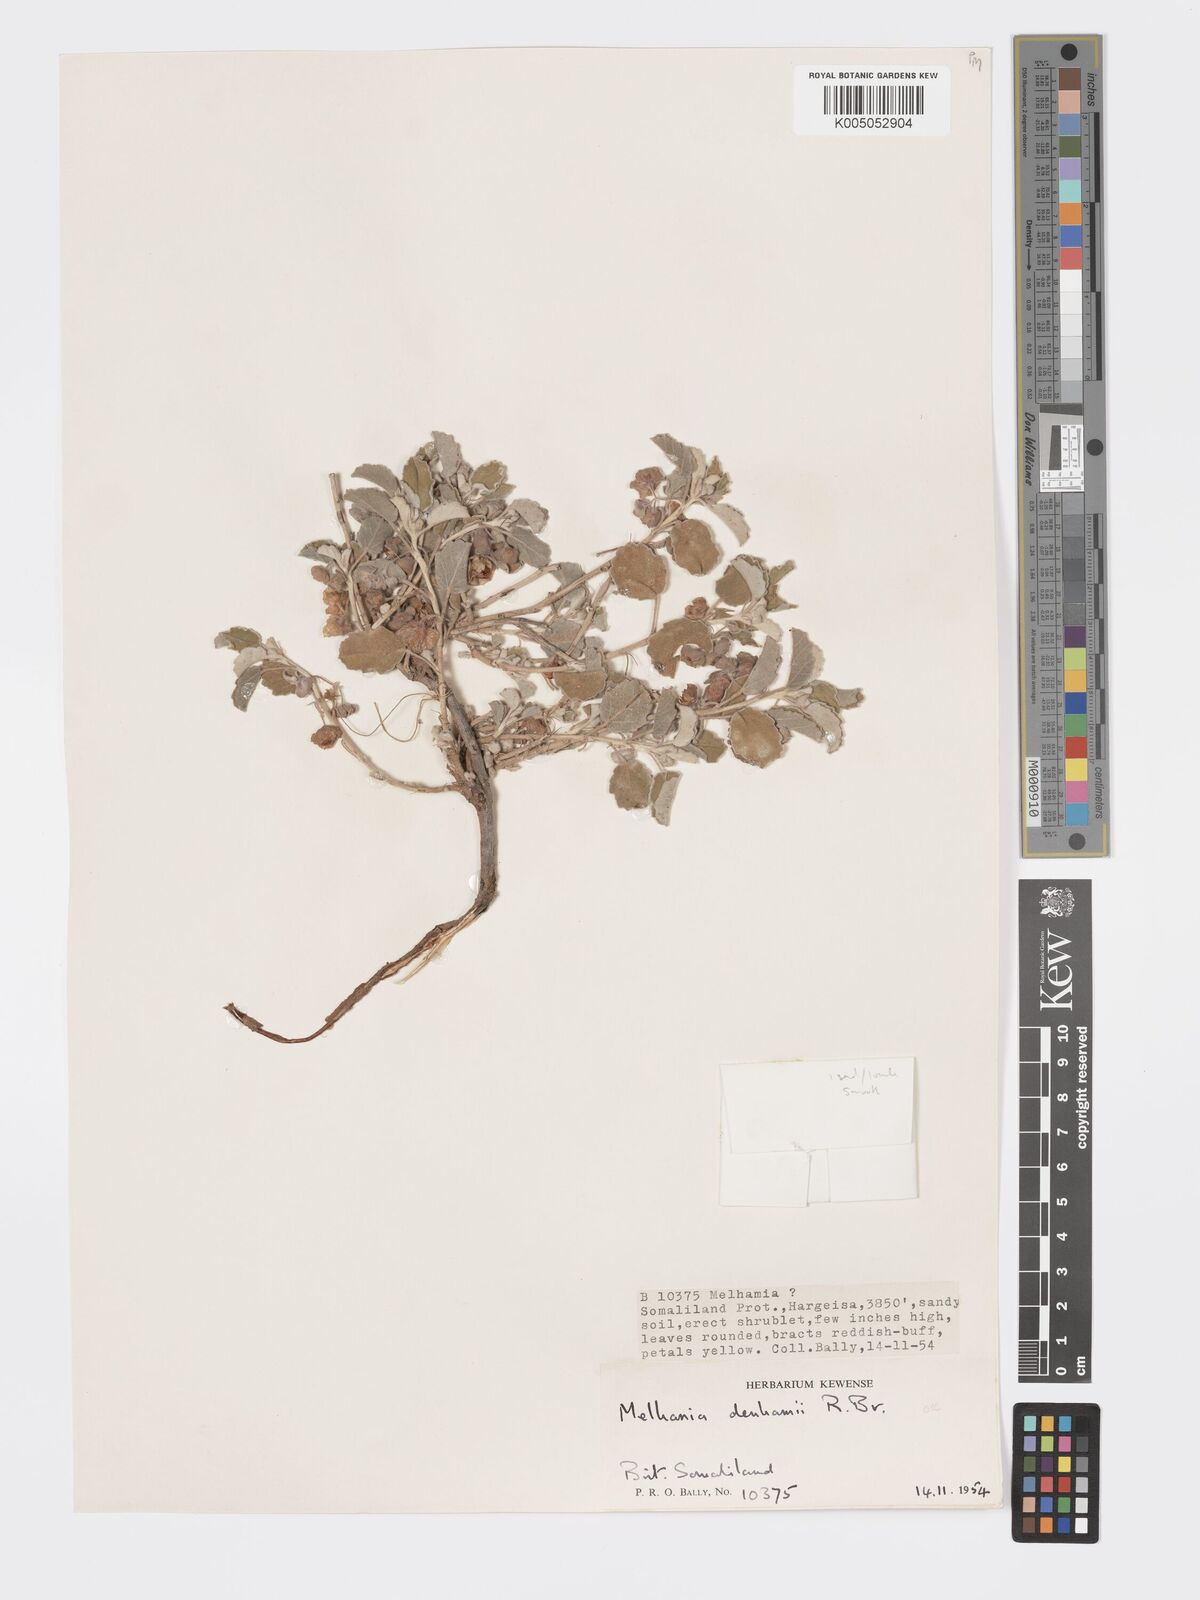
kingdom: Plantae
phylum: Tracheophyta
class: Magnoliopsida
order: Malvales
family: Malvaceae
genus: Melhania
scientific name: Melhania denhamii
